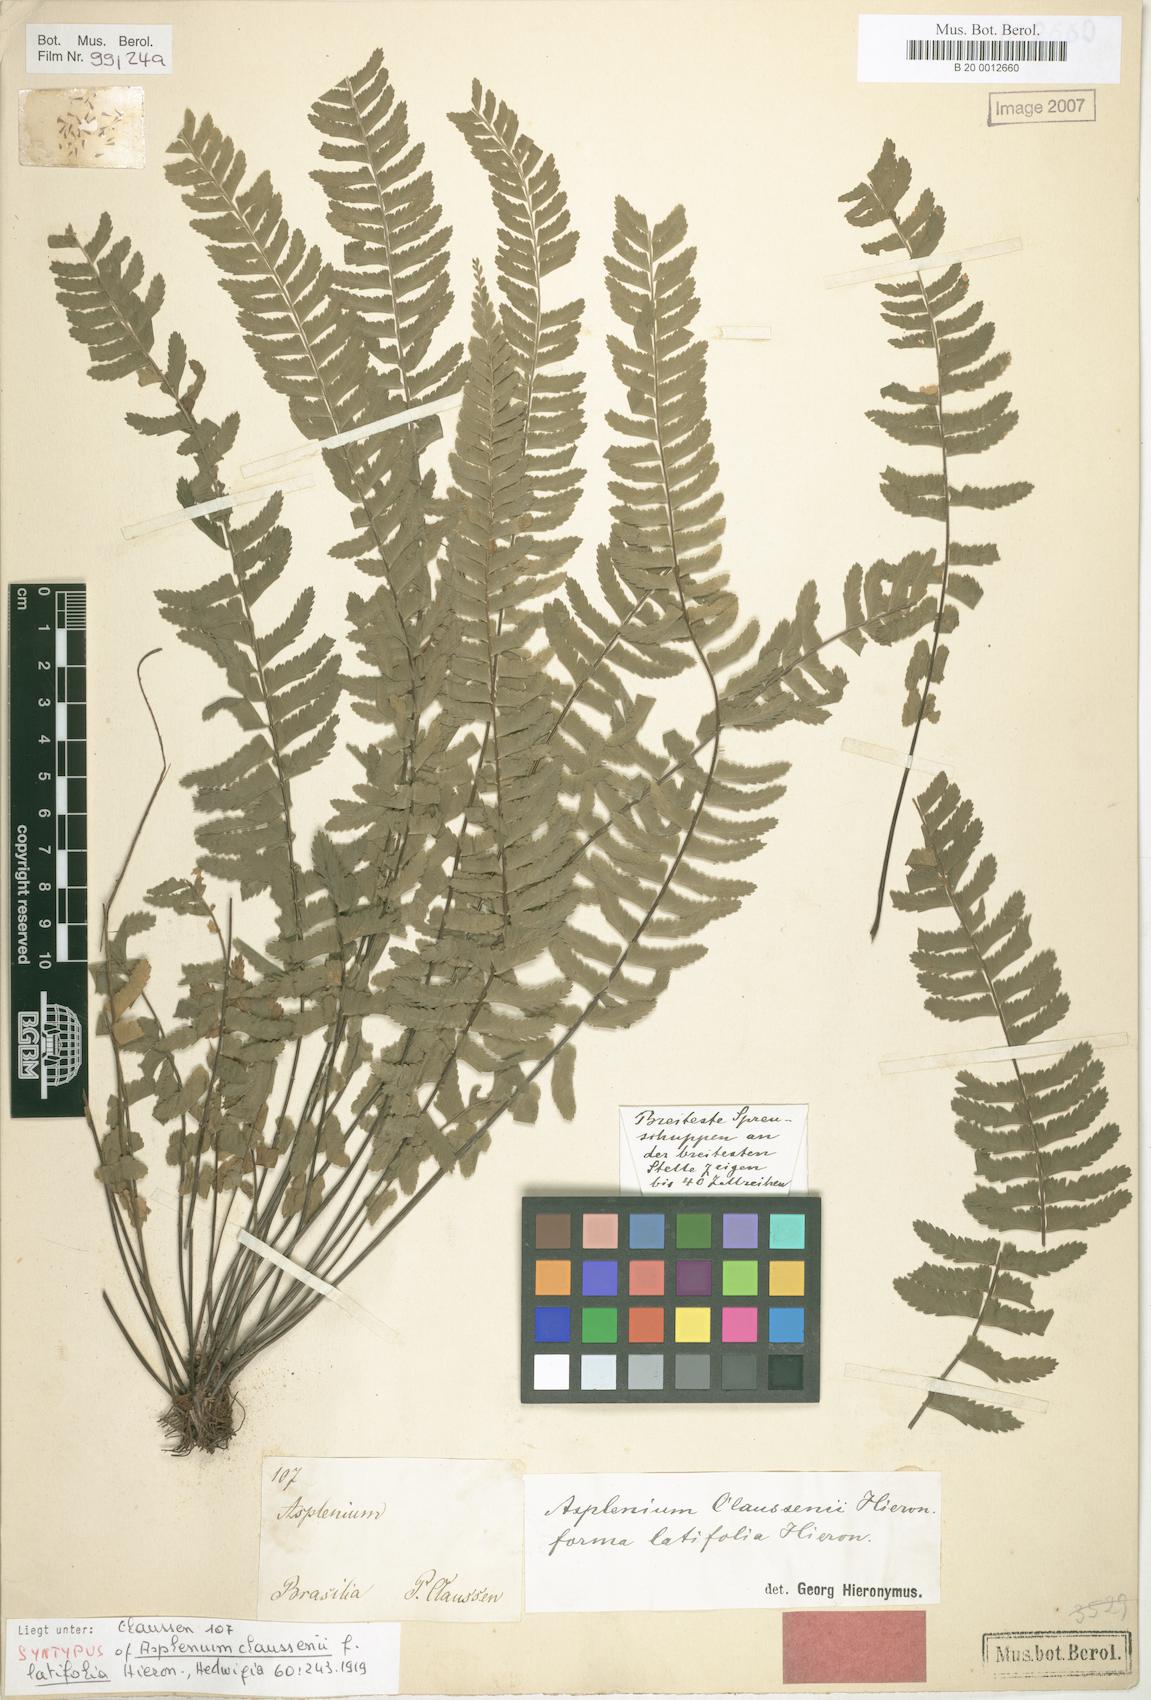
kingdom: Plantae
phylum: Tracheophyta
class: Polypodiopsida
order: Polypodiales
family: Aspleniaceae
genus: Asplenium
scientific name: Asplenium claussenii
